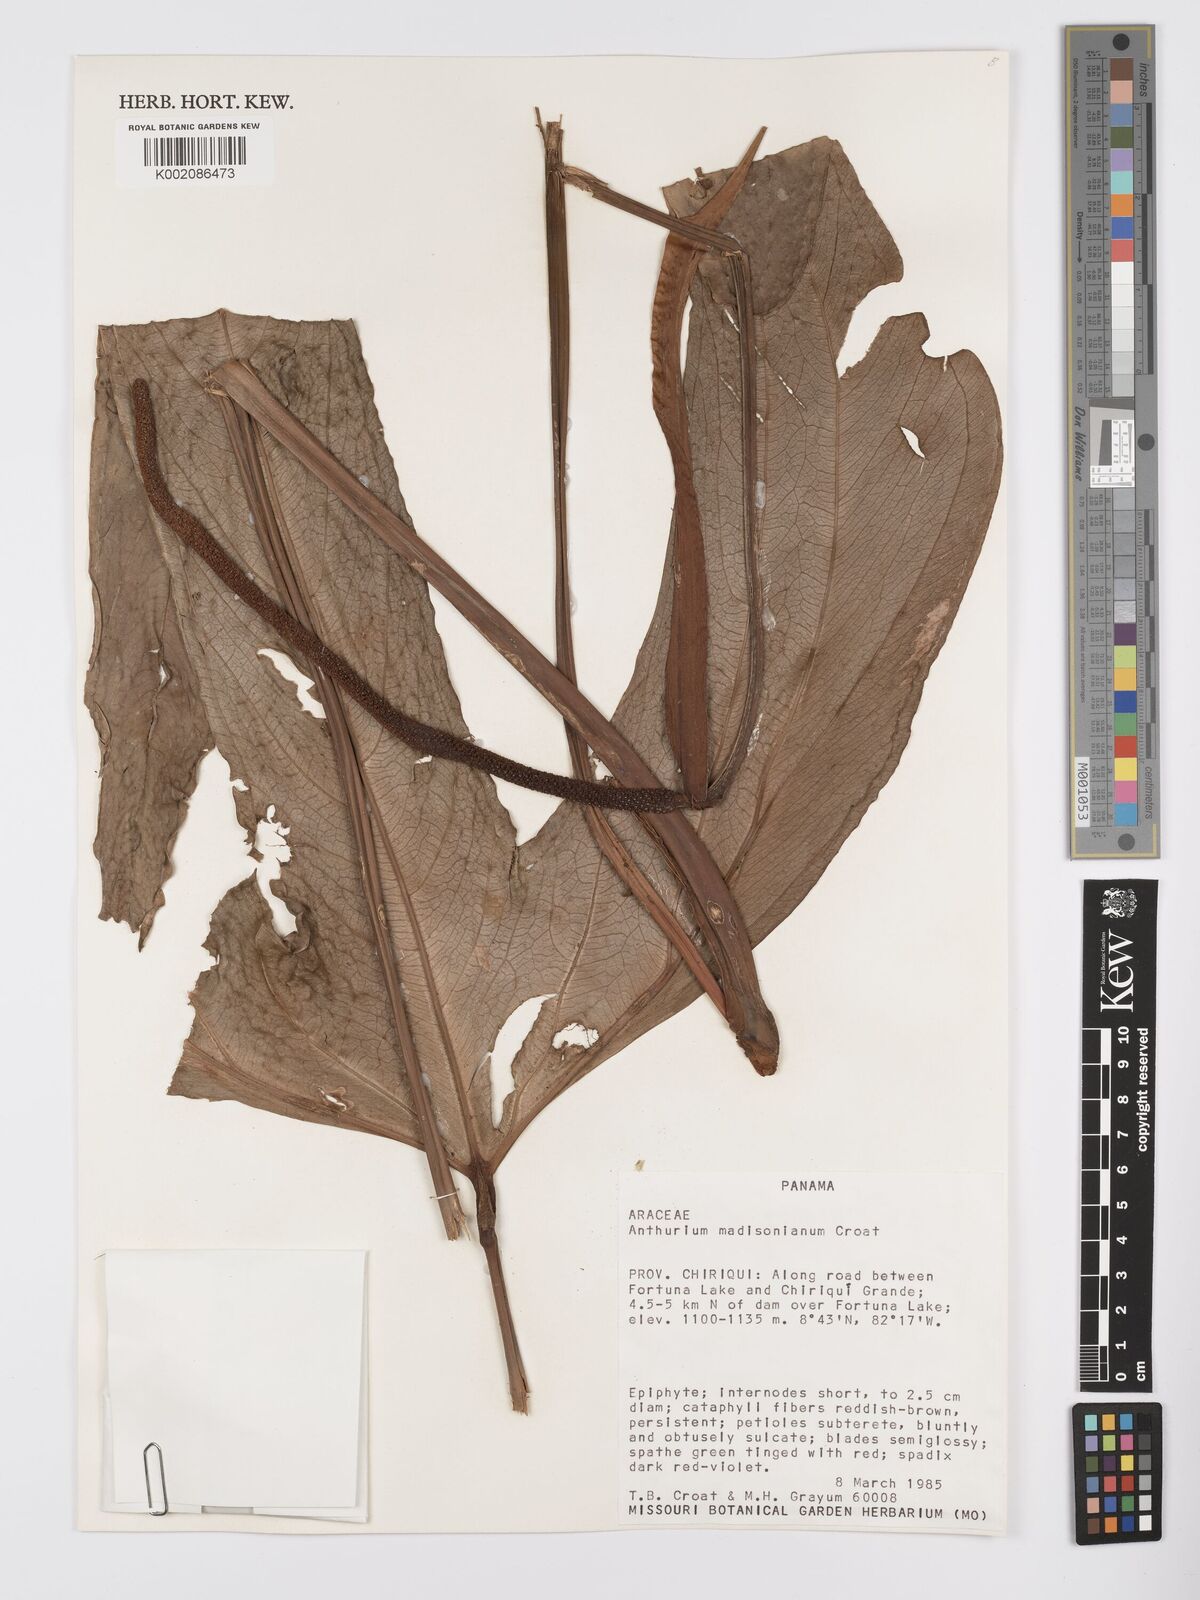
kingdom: Plantae
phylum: Tracheophyta
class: Liliopsida
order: Alismatales
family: Araceae
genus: Anthurium
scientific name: Anthurium madisonianum
